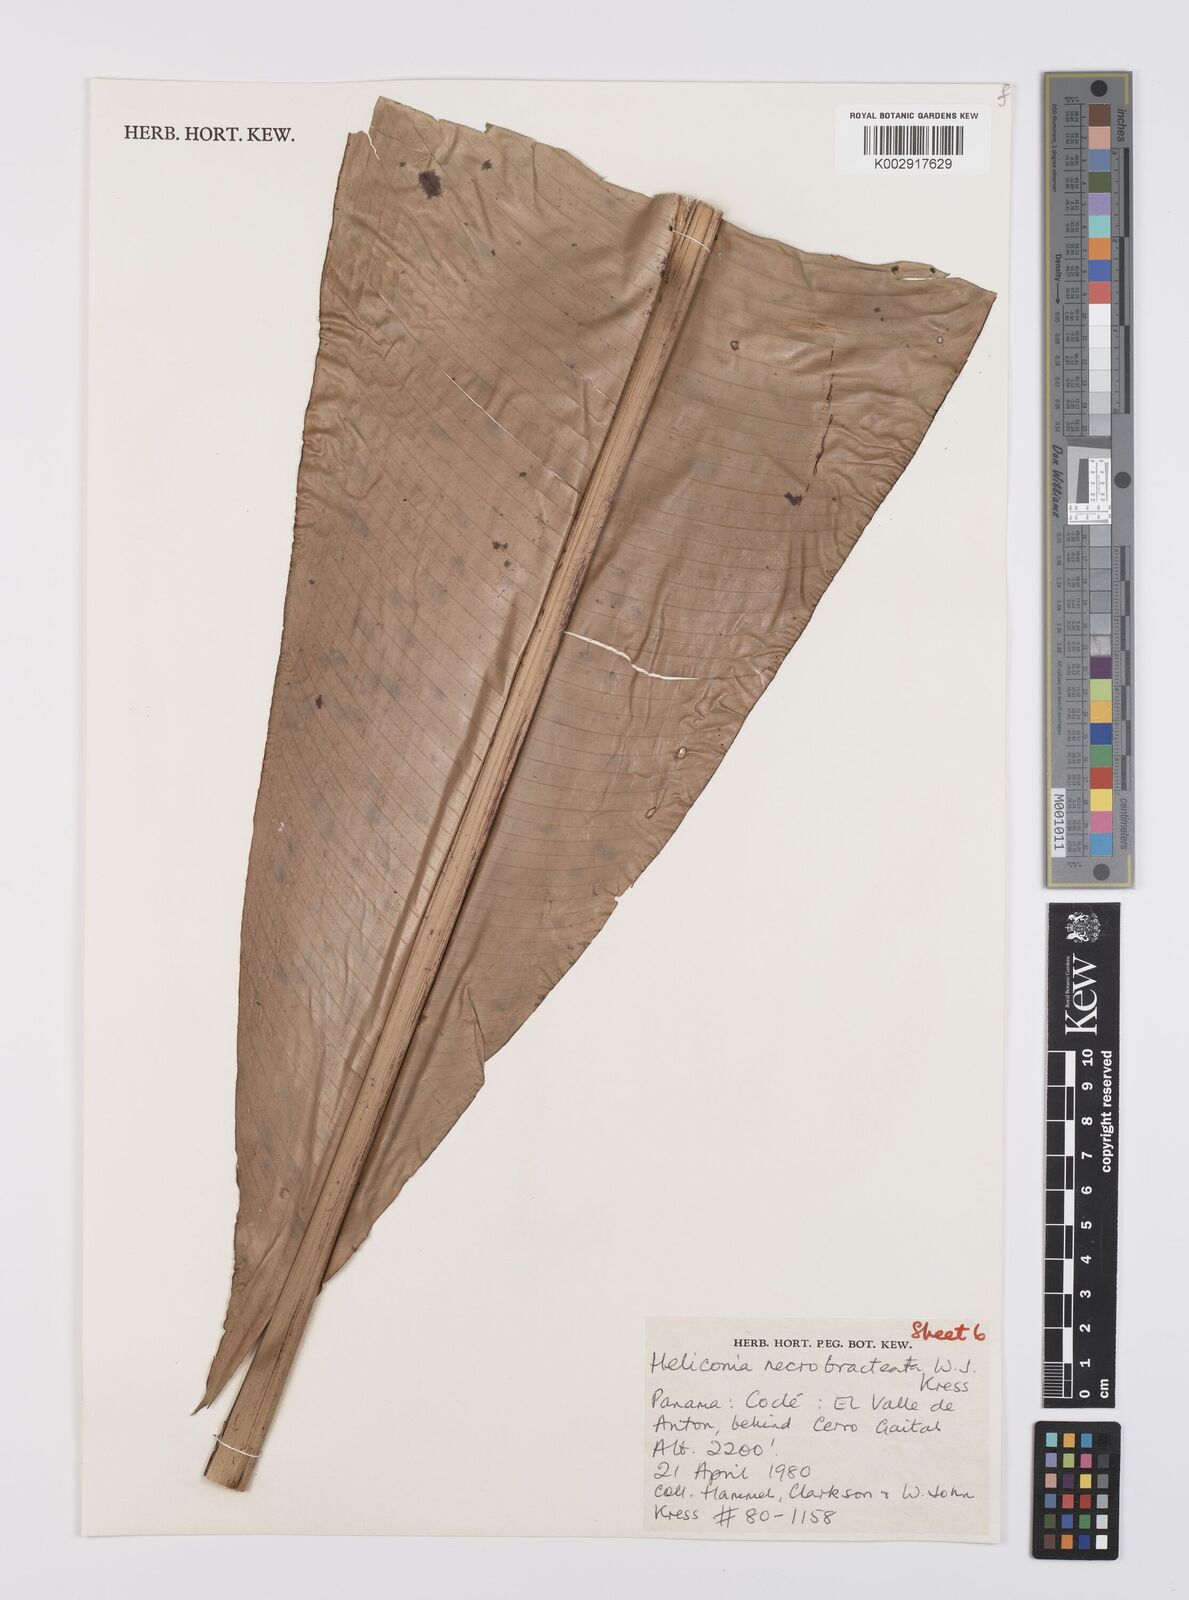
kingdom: Plantae
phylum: Tracheophyta
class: Liliopsida
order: Zingiberales
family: Heliconiaceae
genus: Heliconia
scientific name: Heliconia necrobracteata
